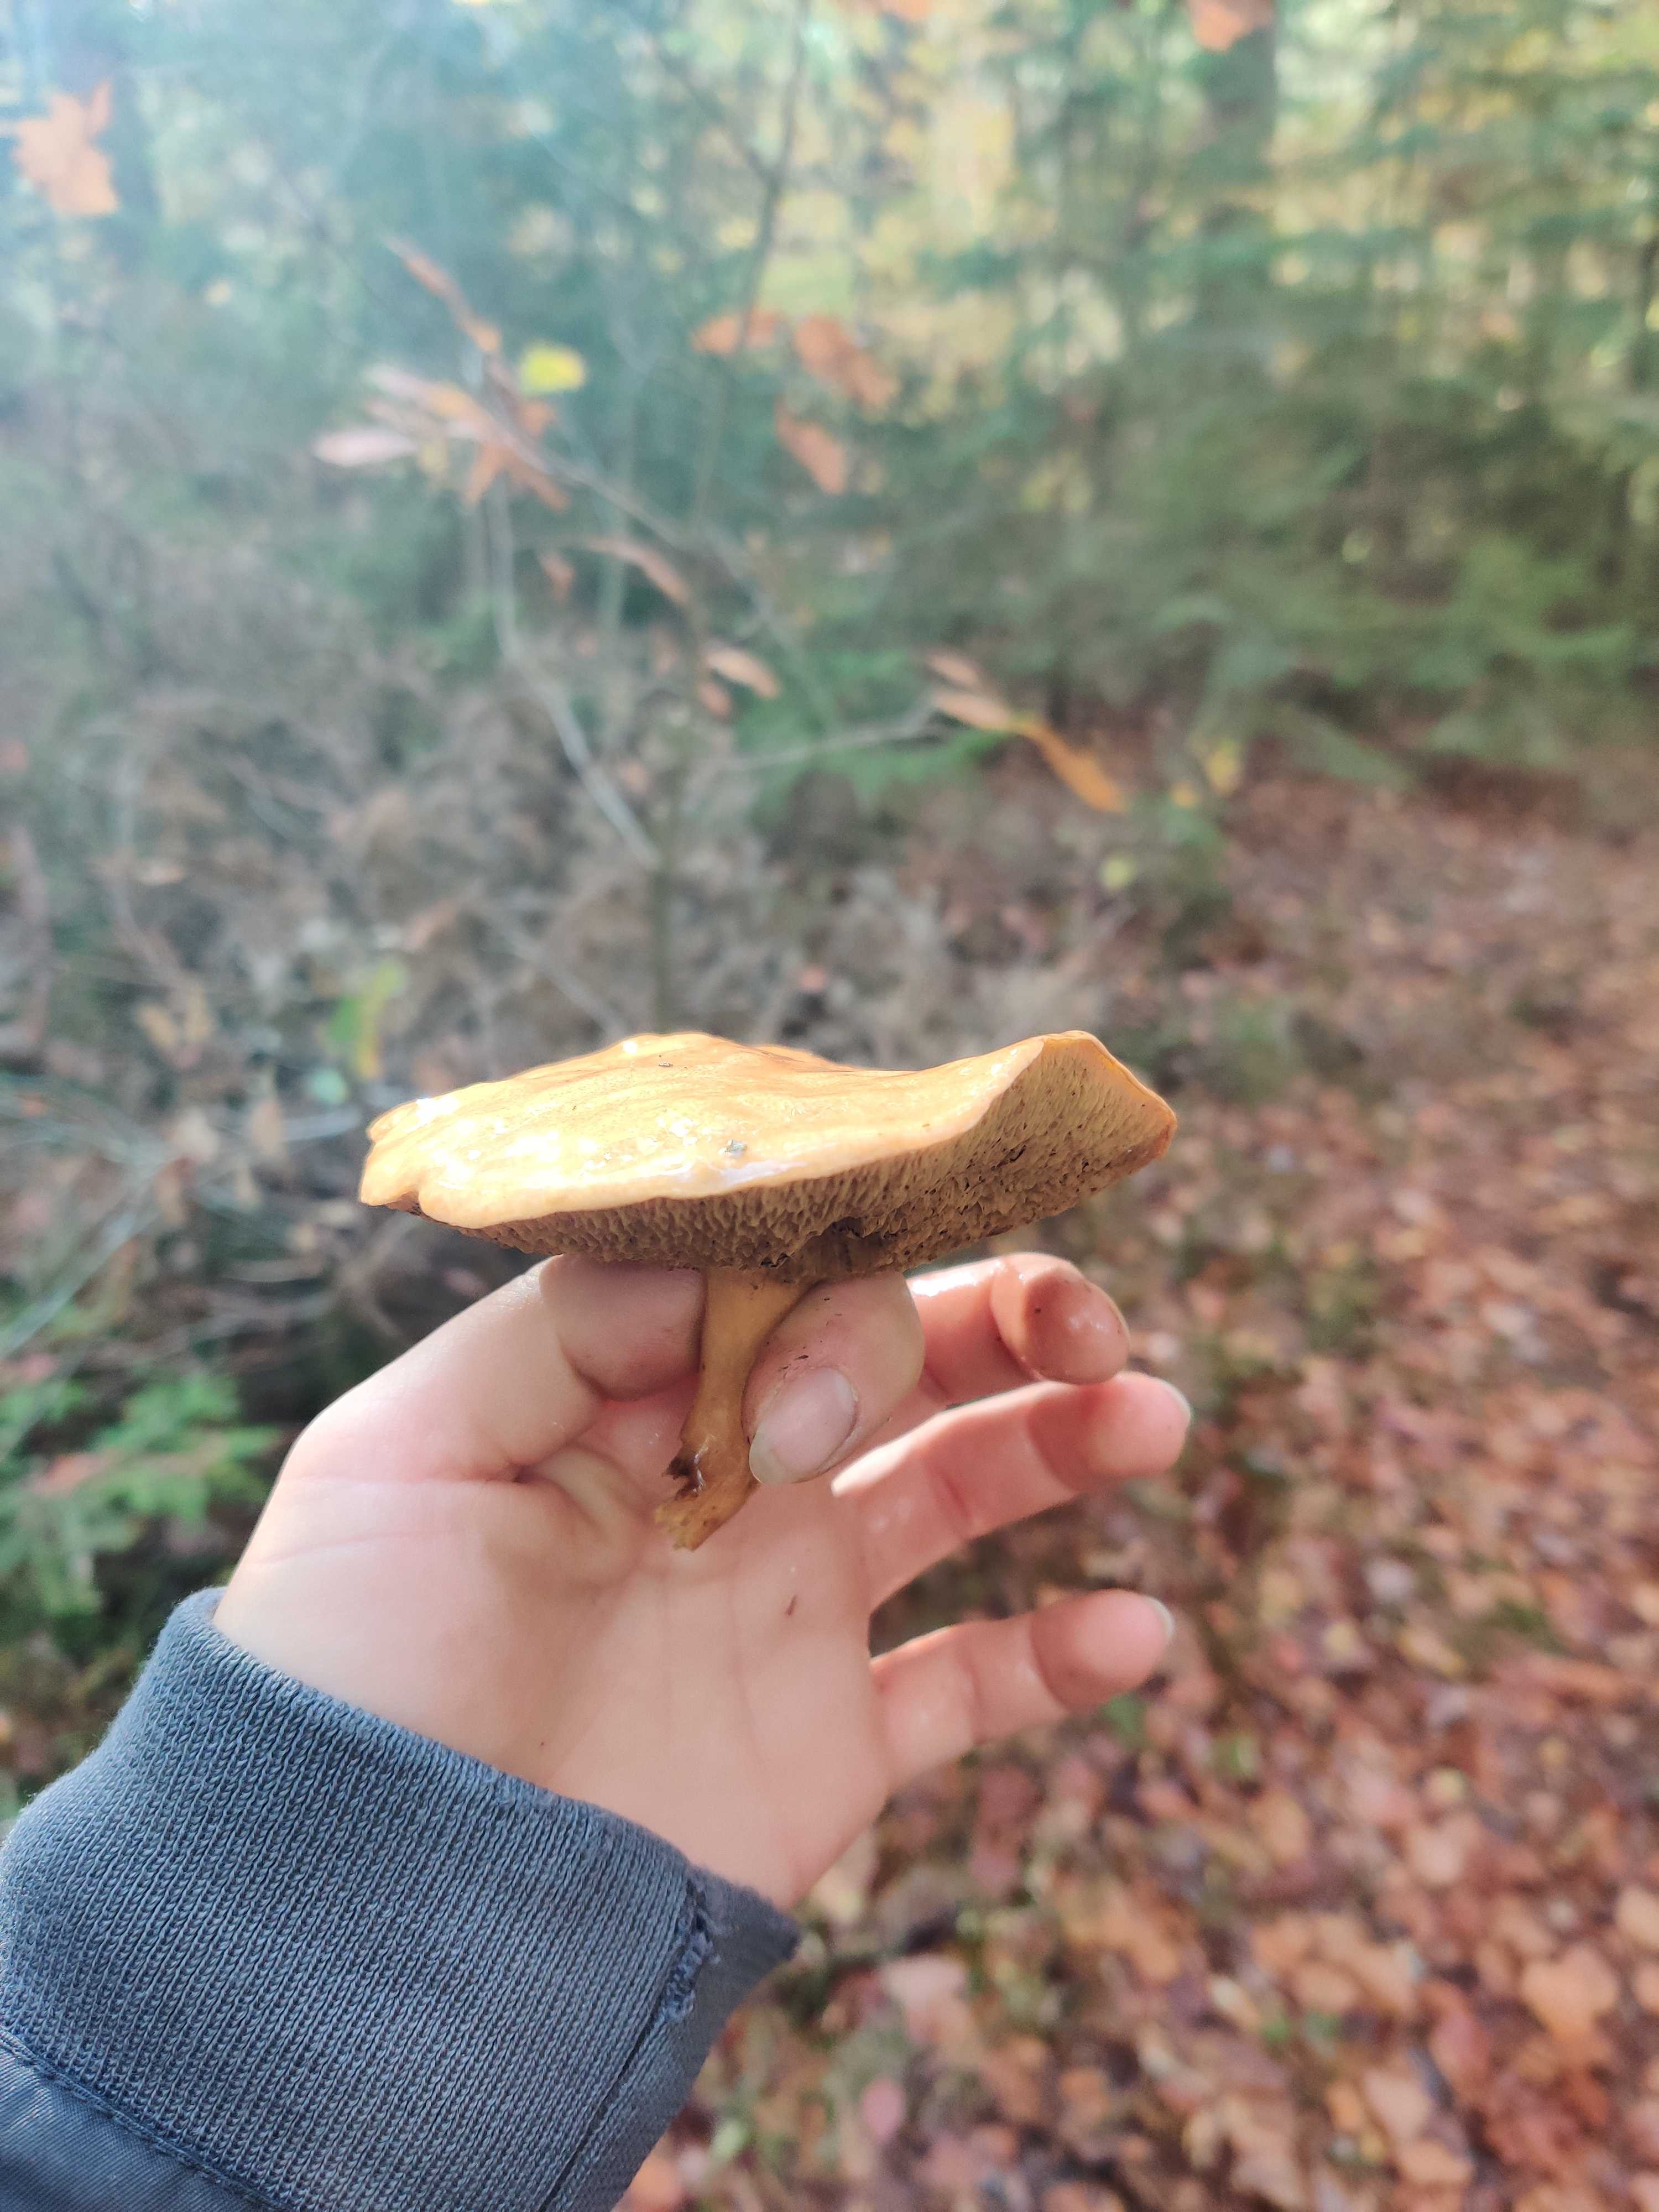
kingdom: Fungi
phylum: Basidiomycota
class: Agaricomycetes
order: Boletales
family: Suillaceae
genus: Suillus
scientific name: Suillus bovinus
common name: grovporet slimrørhat
